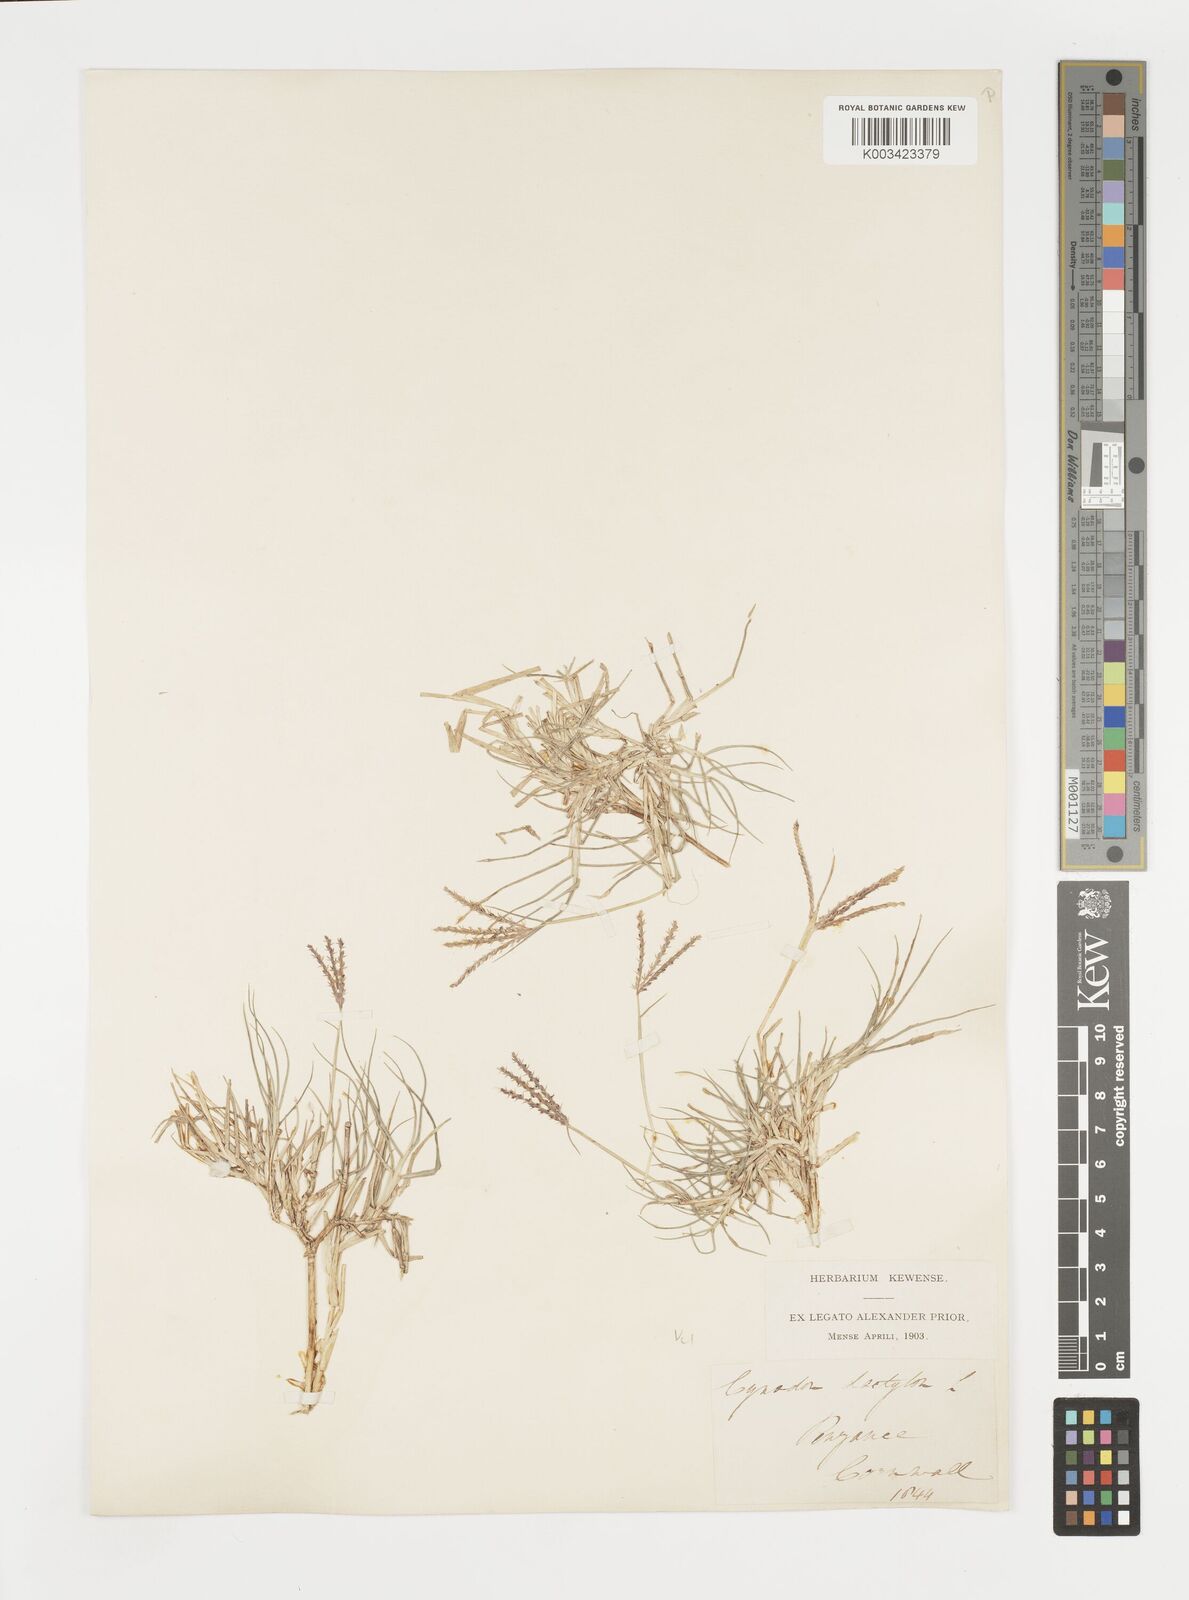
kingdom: Plantae
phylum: Tracheophyta
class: Liliopsida
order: Poales
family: Poaceae
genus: Cynodon
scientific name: Cynodon dactylon
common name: Bermuda grass
